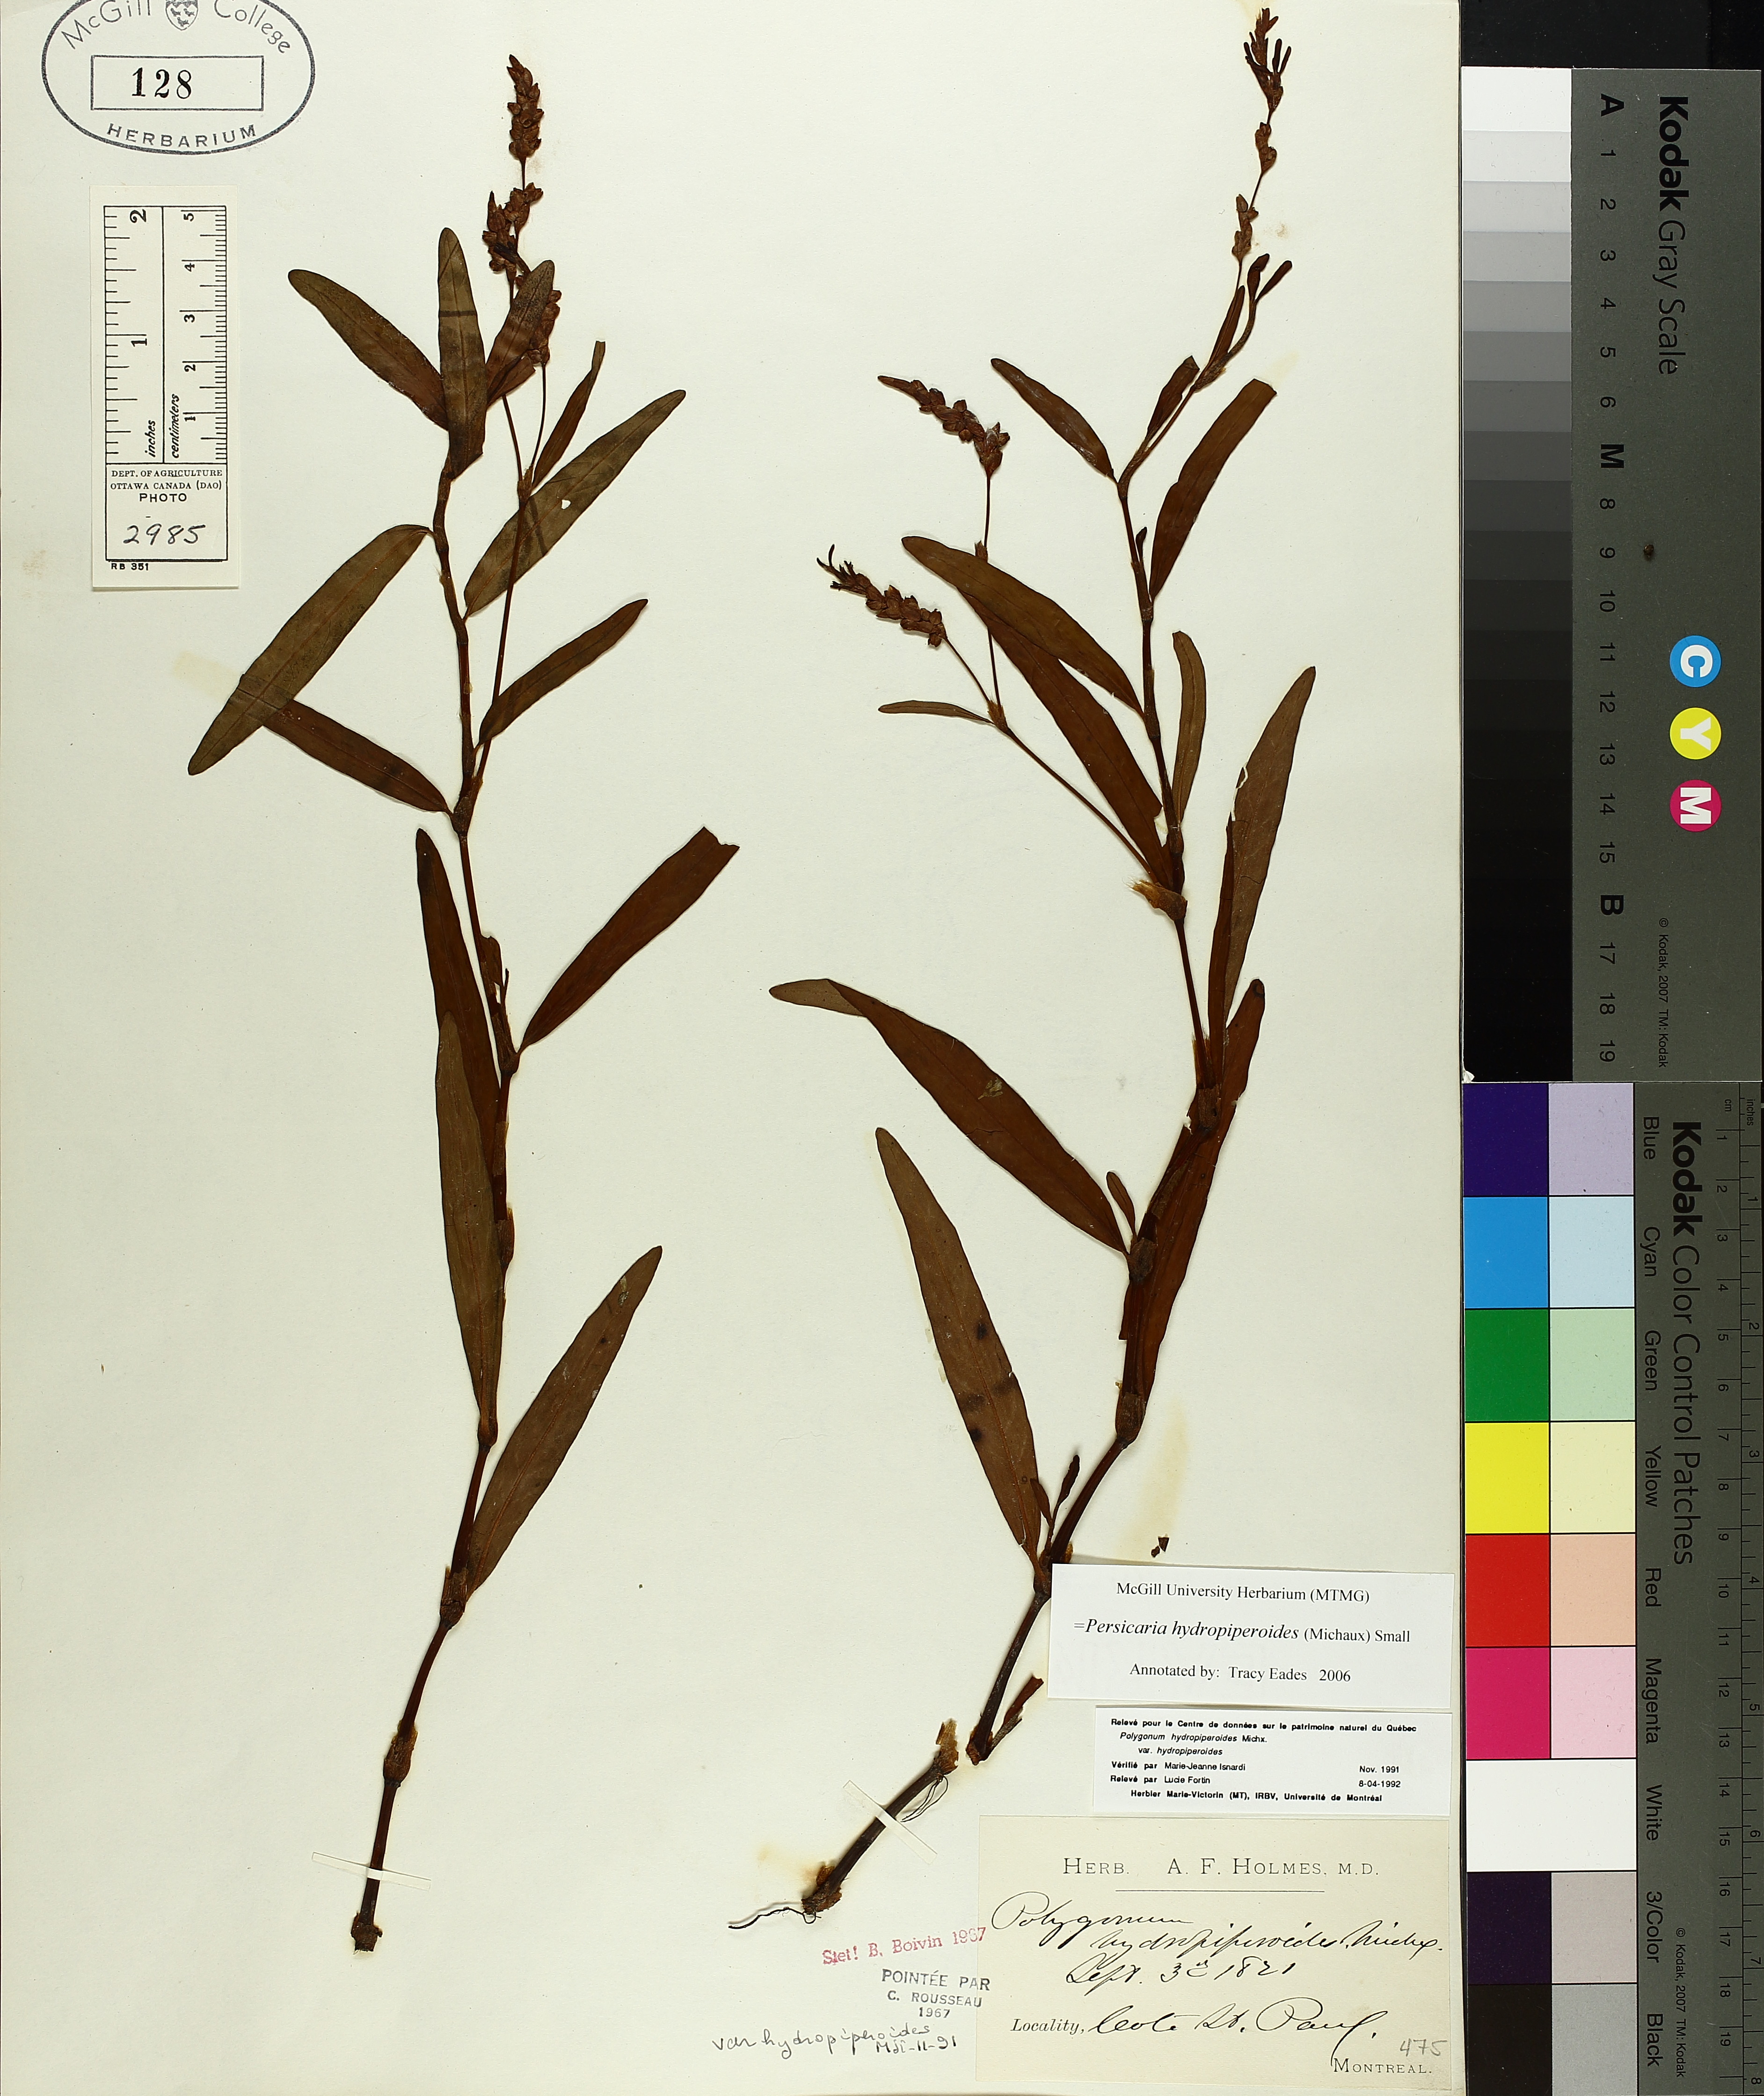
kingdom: Plantae
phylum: Tracheophyta
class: Magnoliopsida
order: Caryophyllales
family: Polygonaceae
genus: Persicaria
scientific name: Persicaria hydropiperoides
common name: Swamp smartweed
